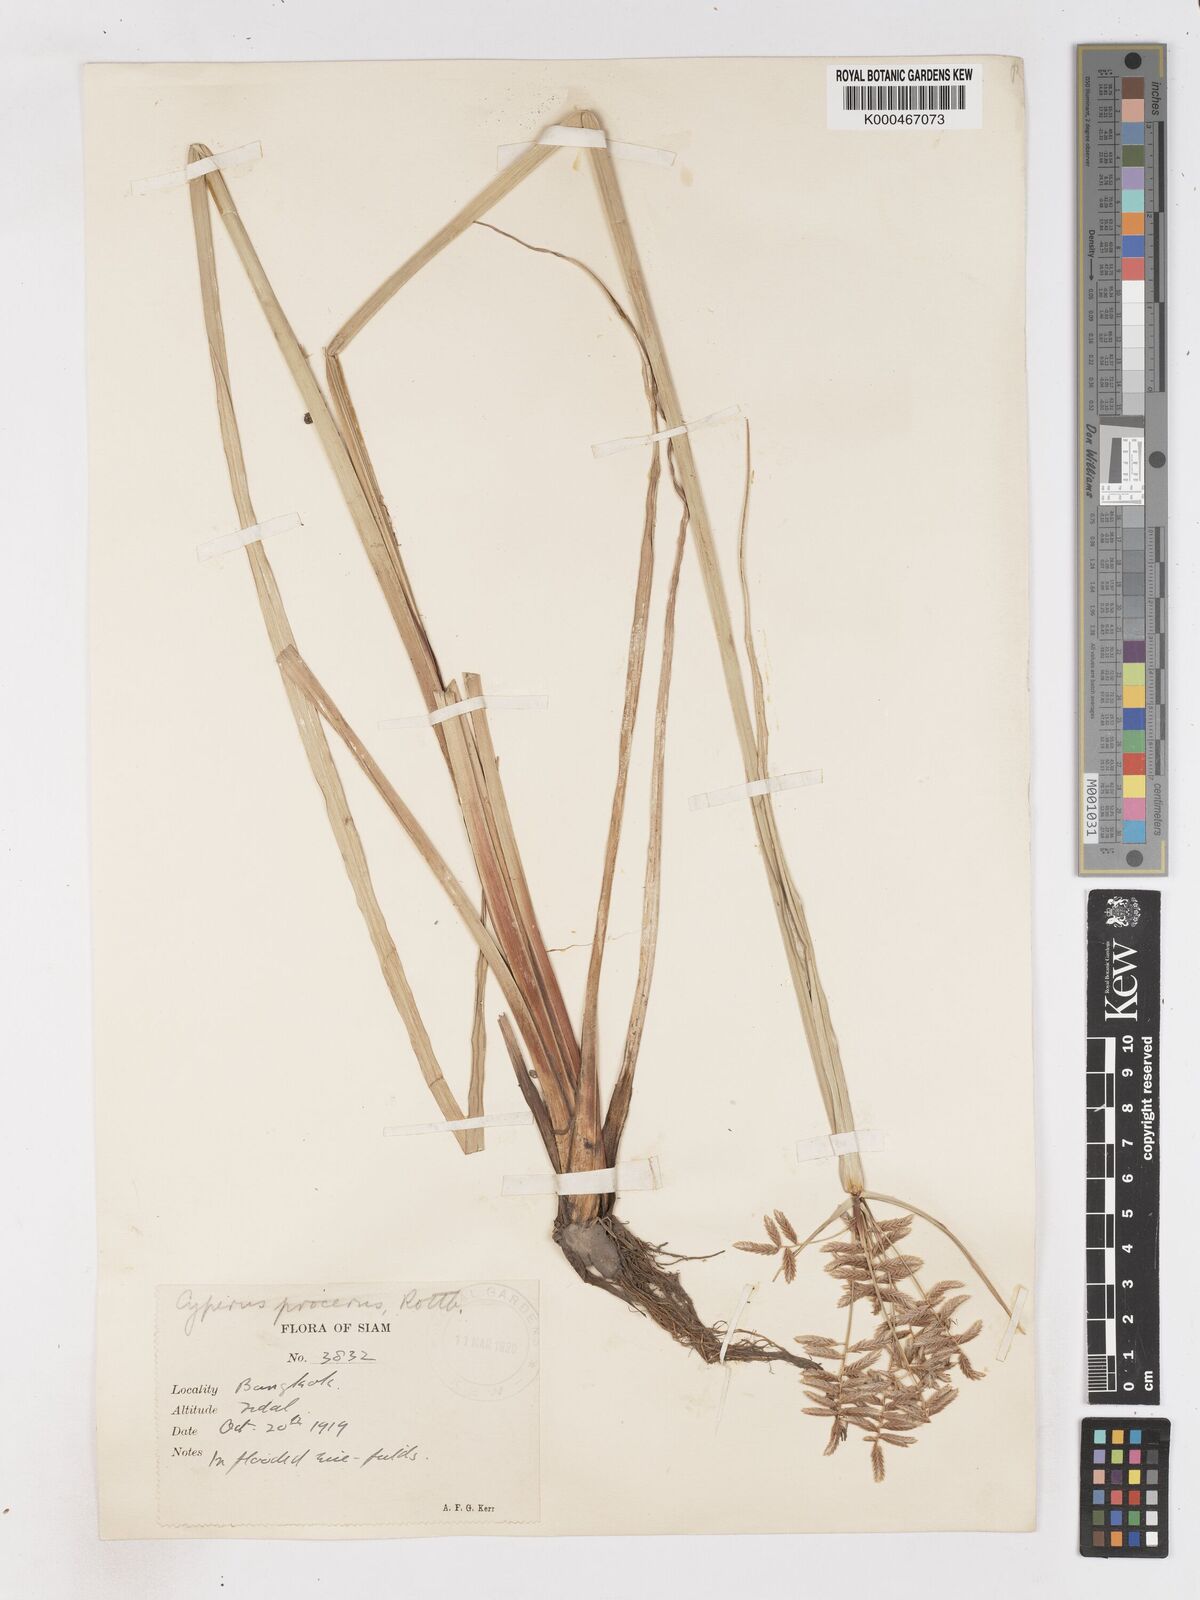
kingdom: Plantae
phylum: Tracheophyta
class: Liliopsida
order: Poales
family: Cyperaceae
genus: Cyperus
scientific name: Cyperus procerus
